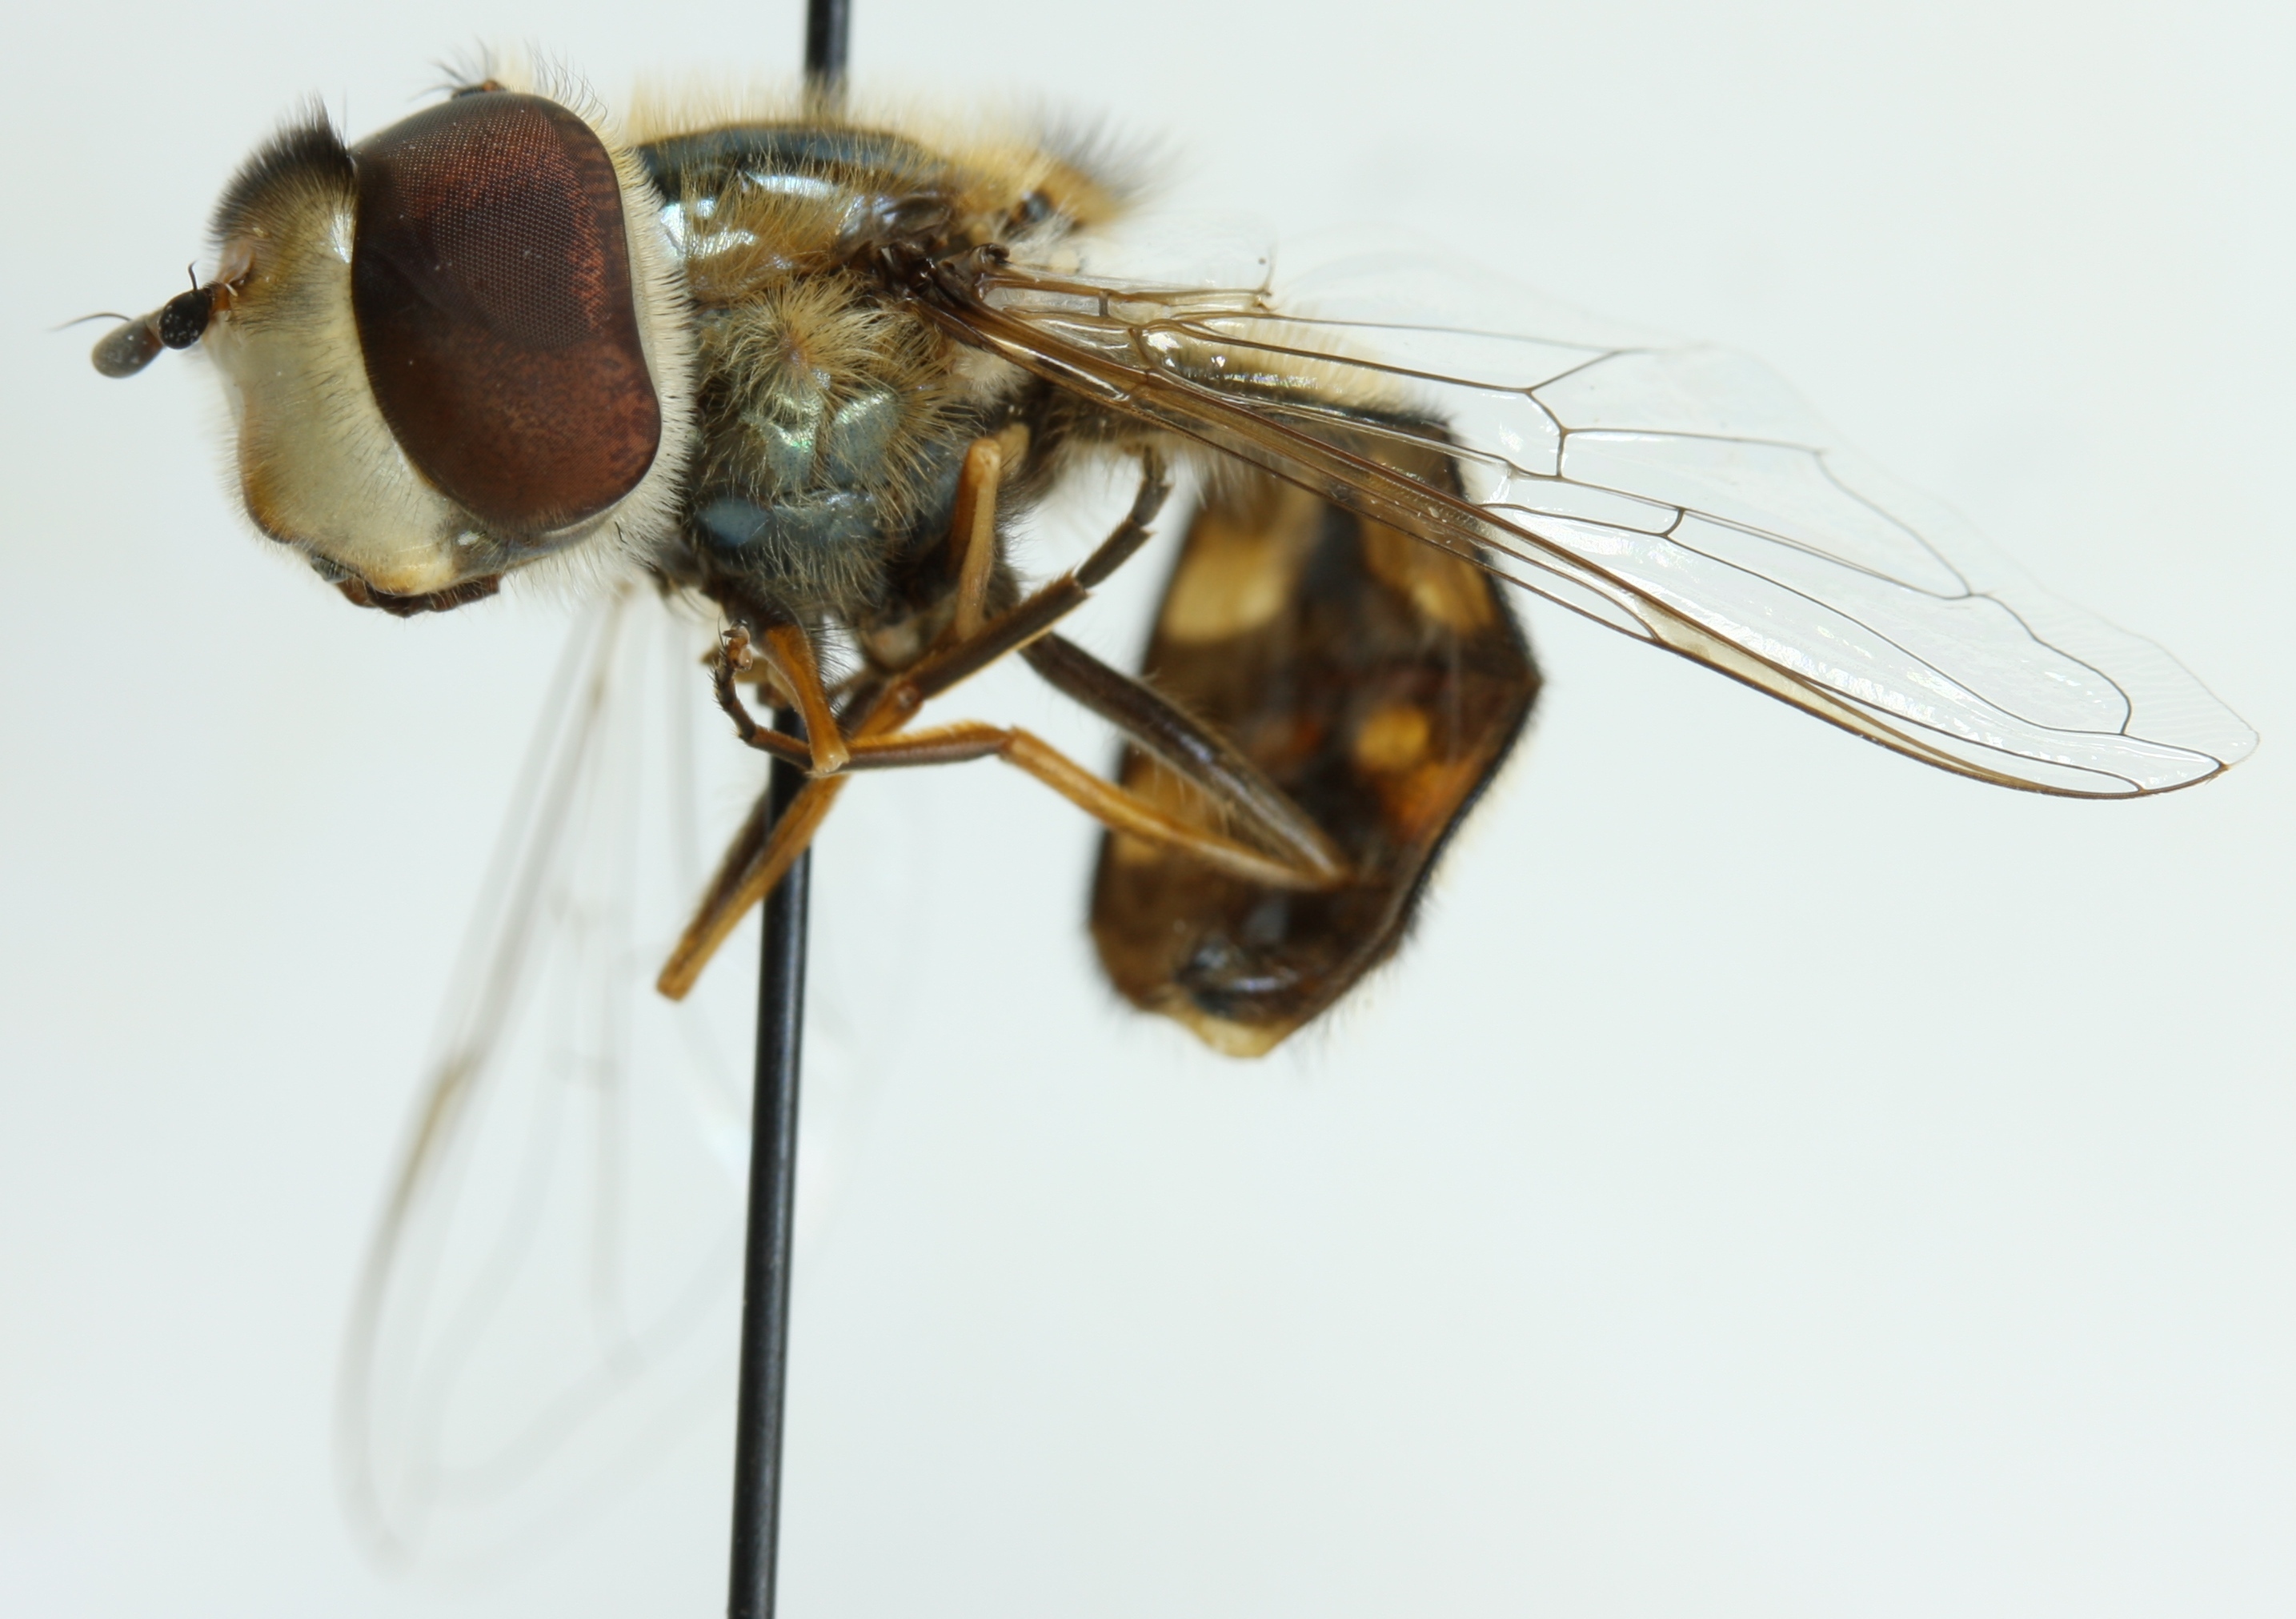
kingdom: Animalia
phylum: Arthropoda
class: Insecta
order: Diptera
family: Syrphidae
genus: Scaeva
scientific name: Scaeva pyrastri
